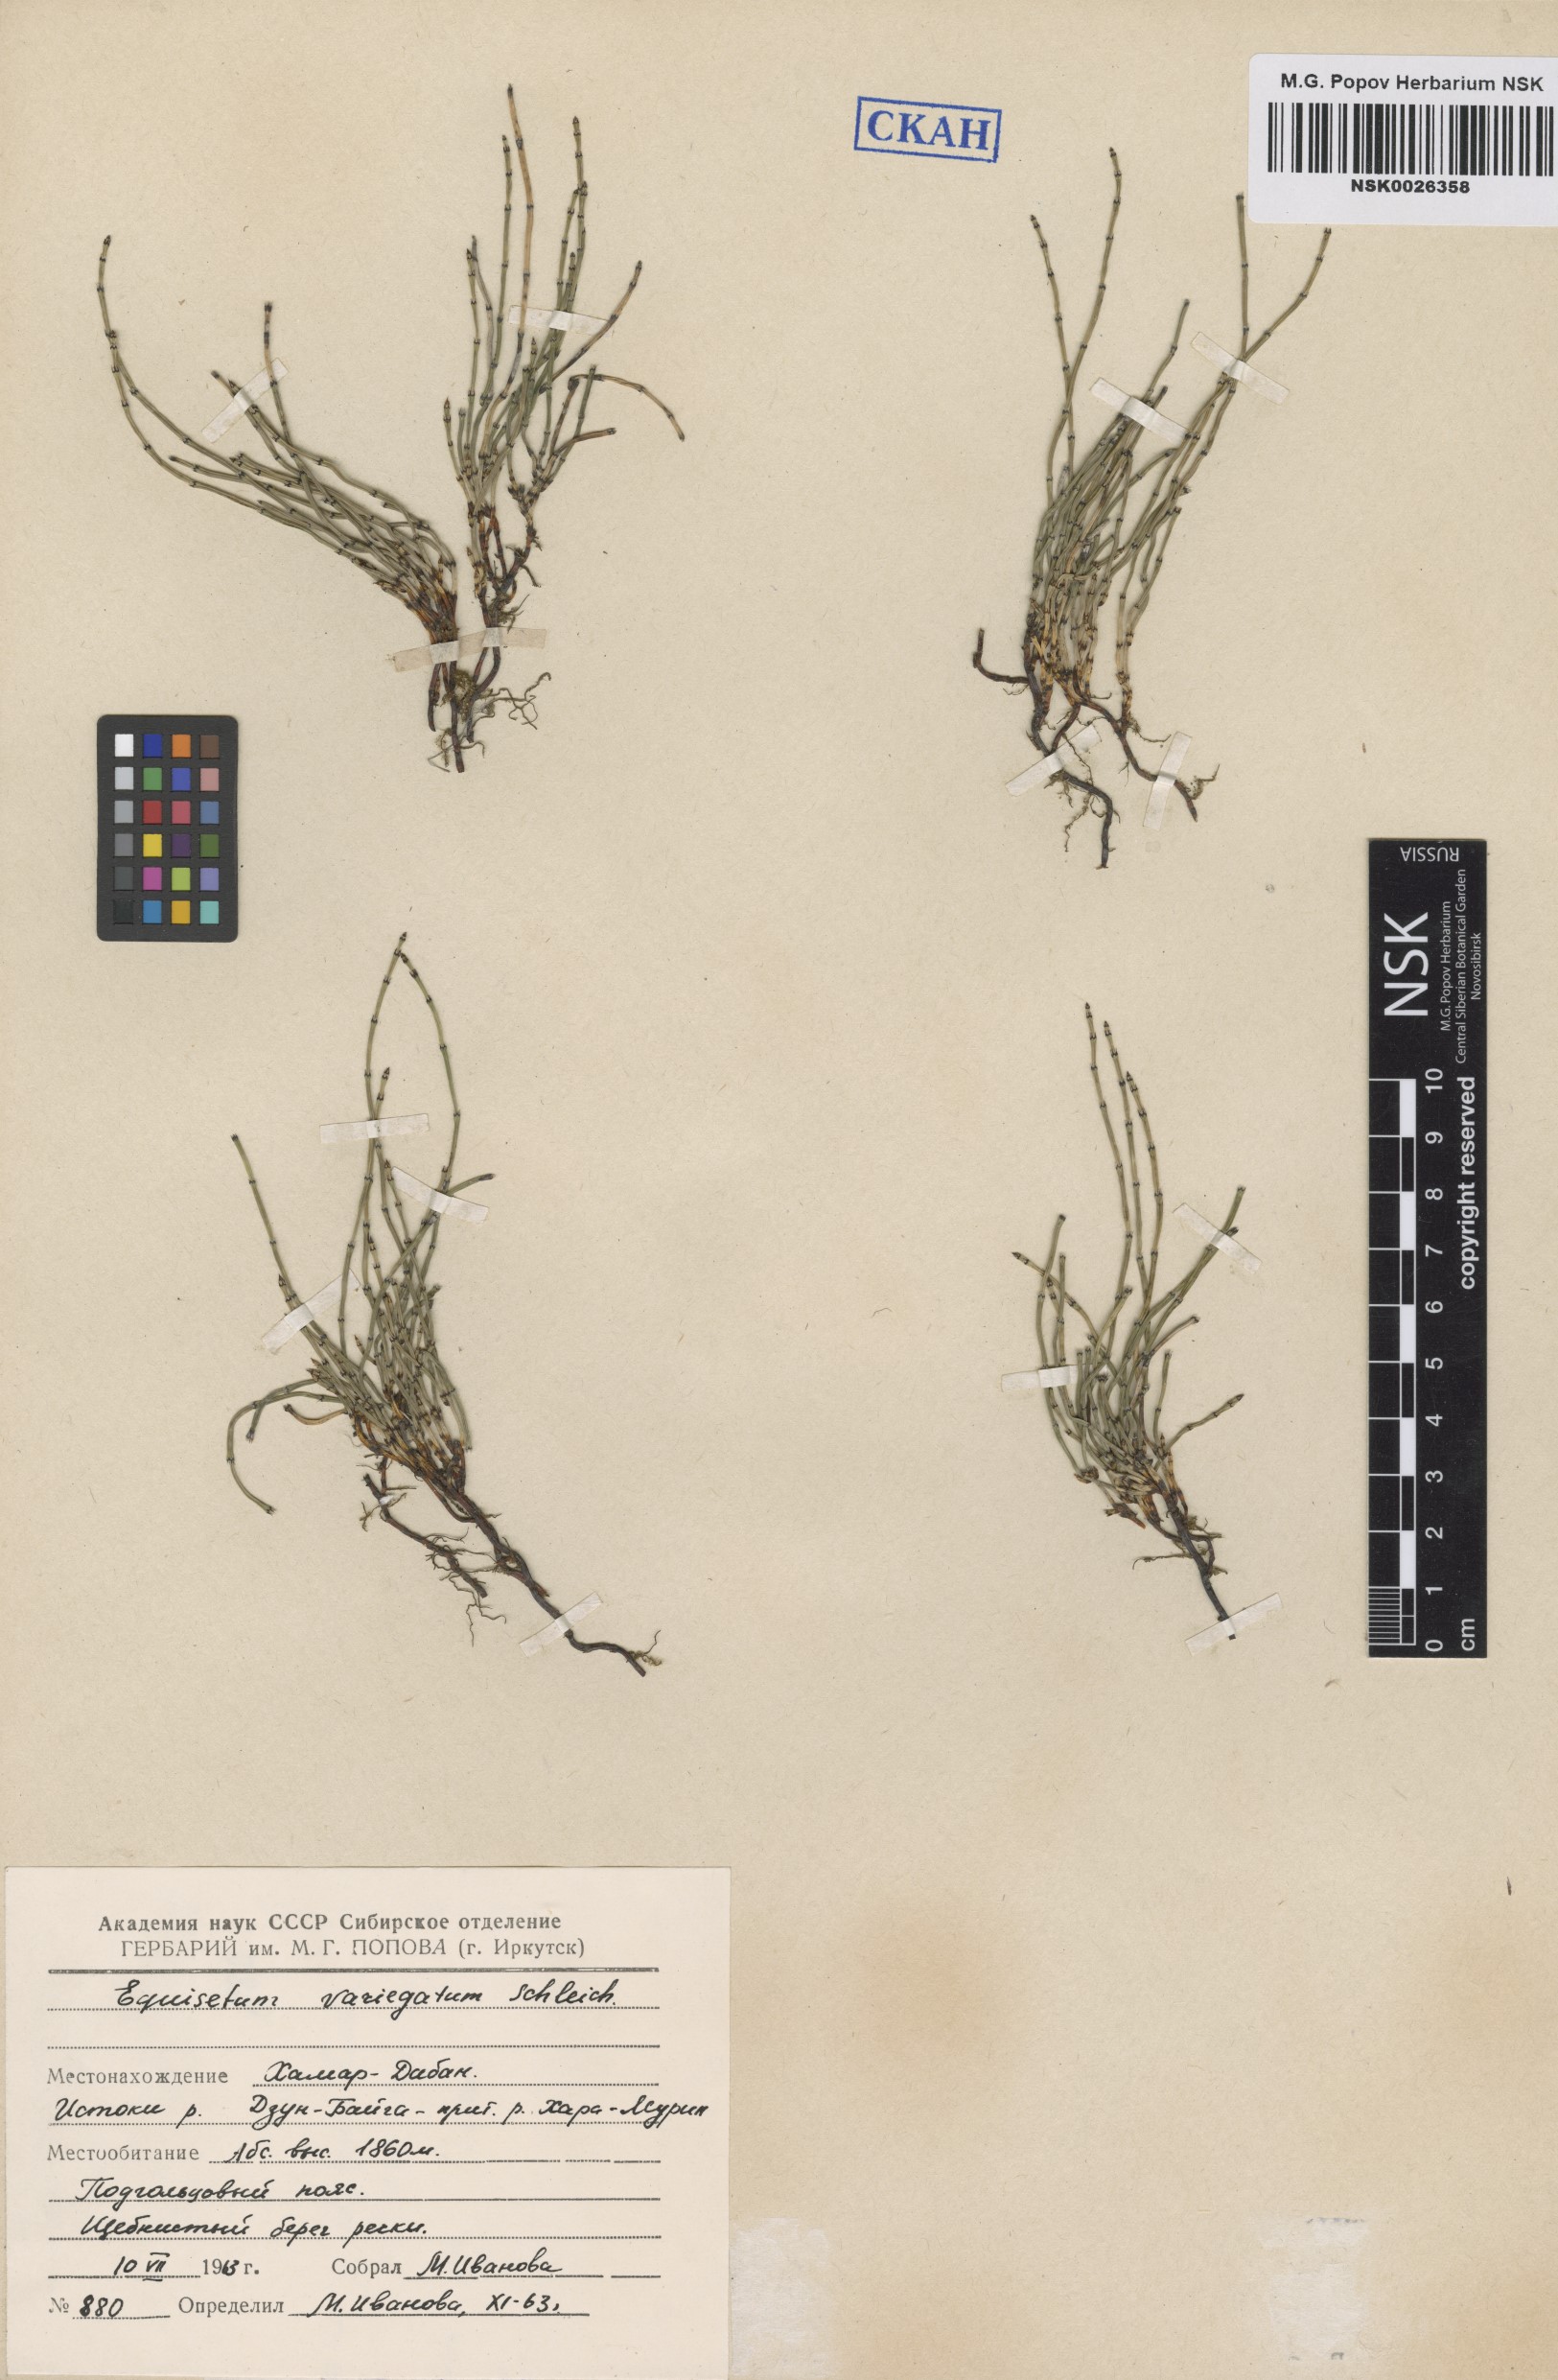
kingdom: Plantae
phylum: Tracheophyta
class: Polypodiopsida
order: Equisetales
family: Equisetaceae
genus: Equisetum
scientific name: Equisetum variegatum
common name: Variegated horsetail
